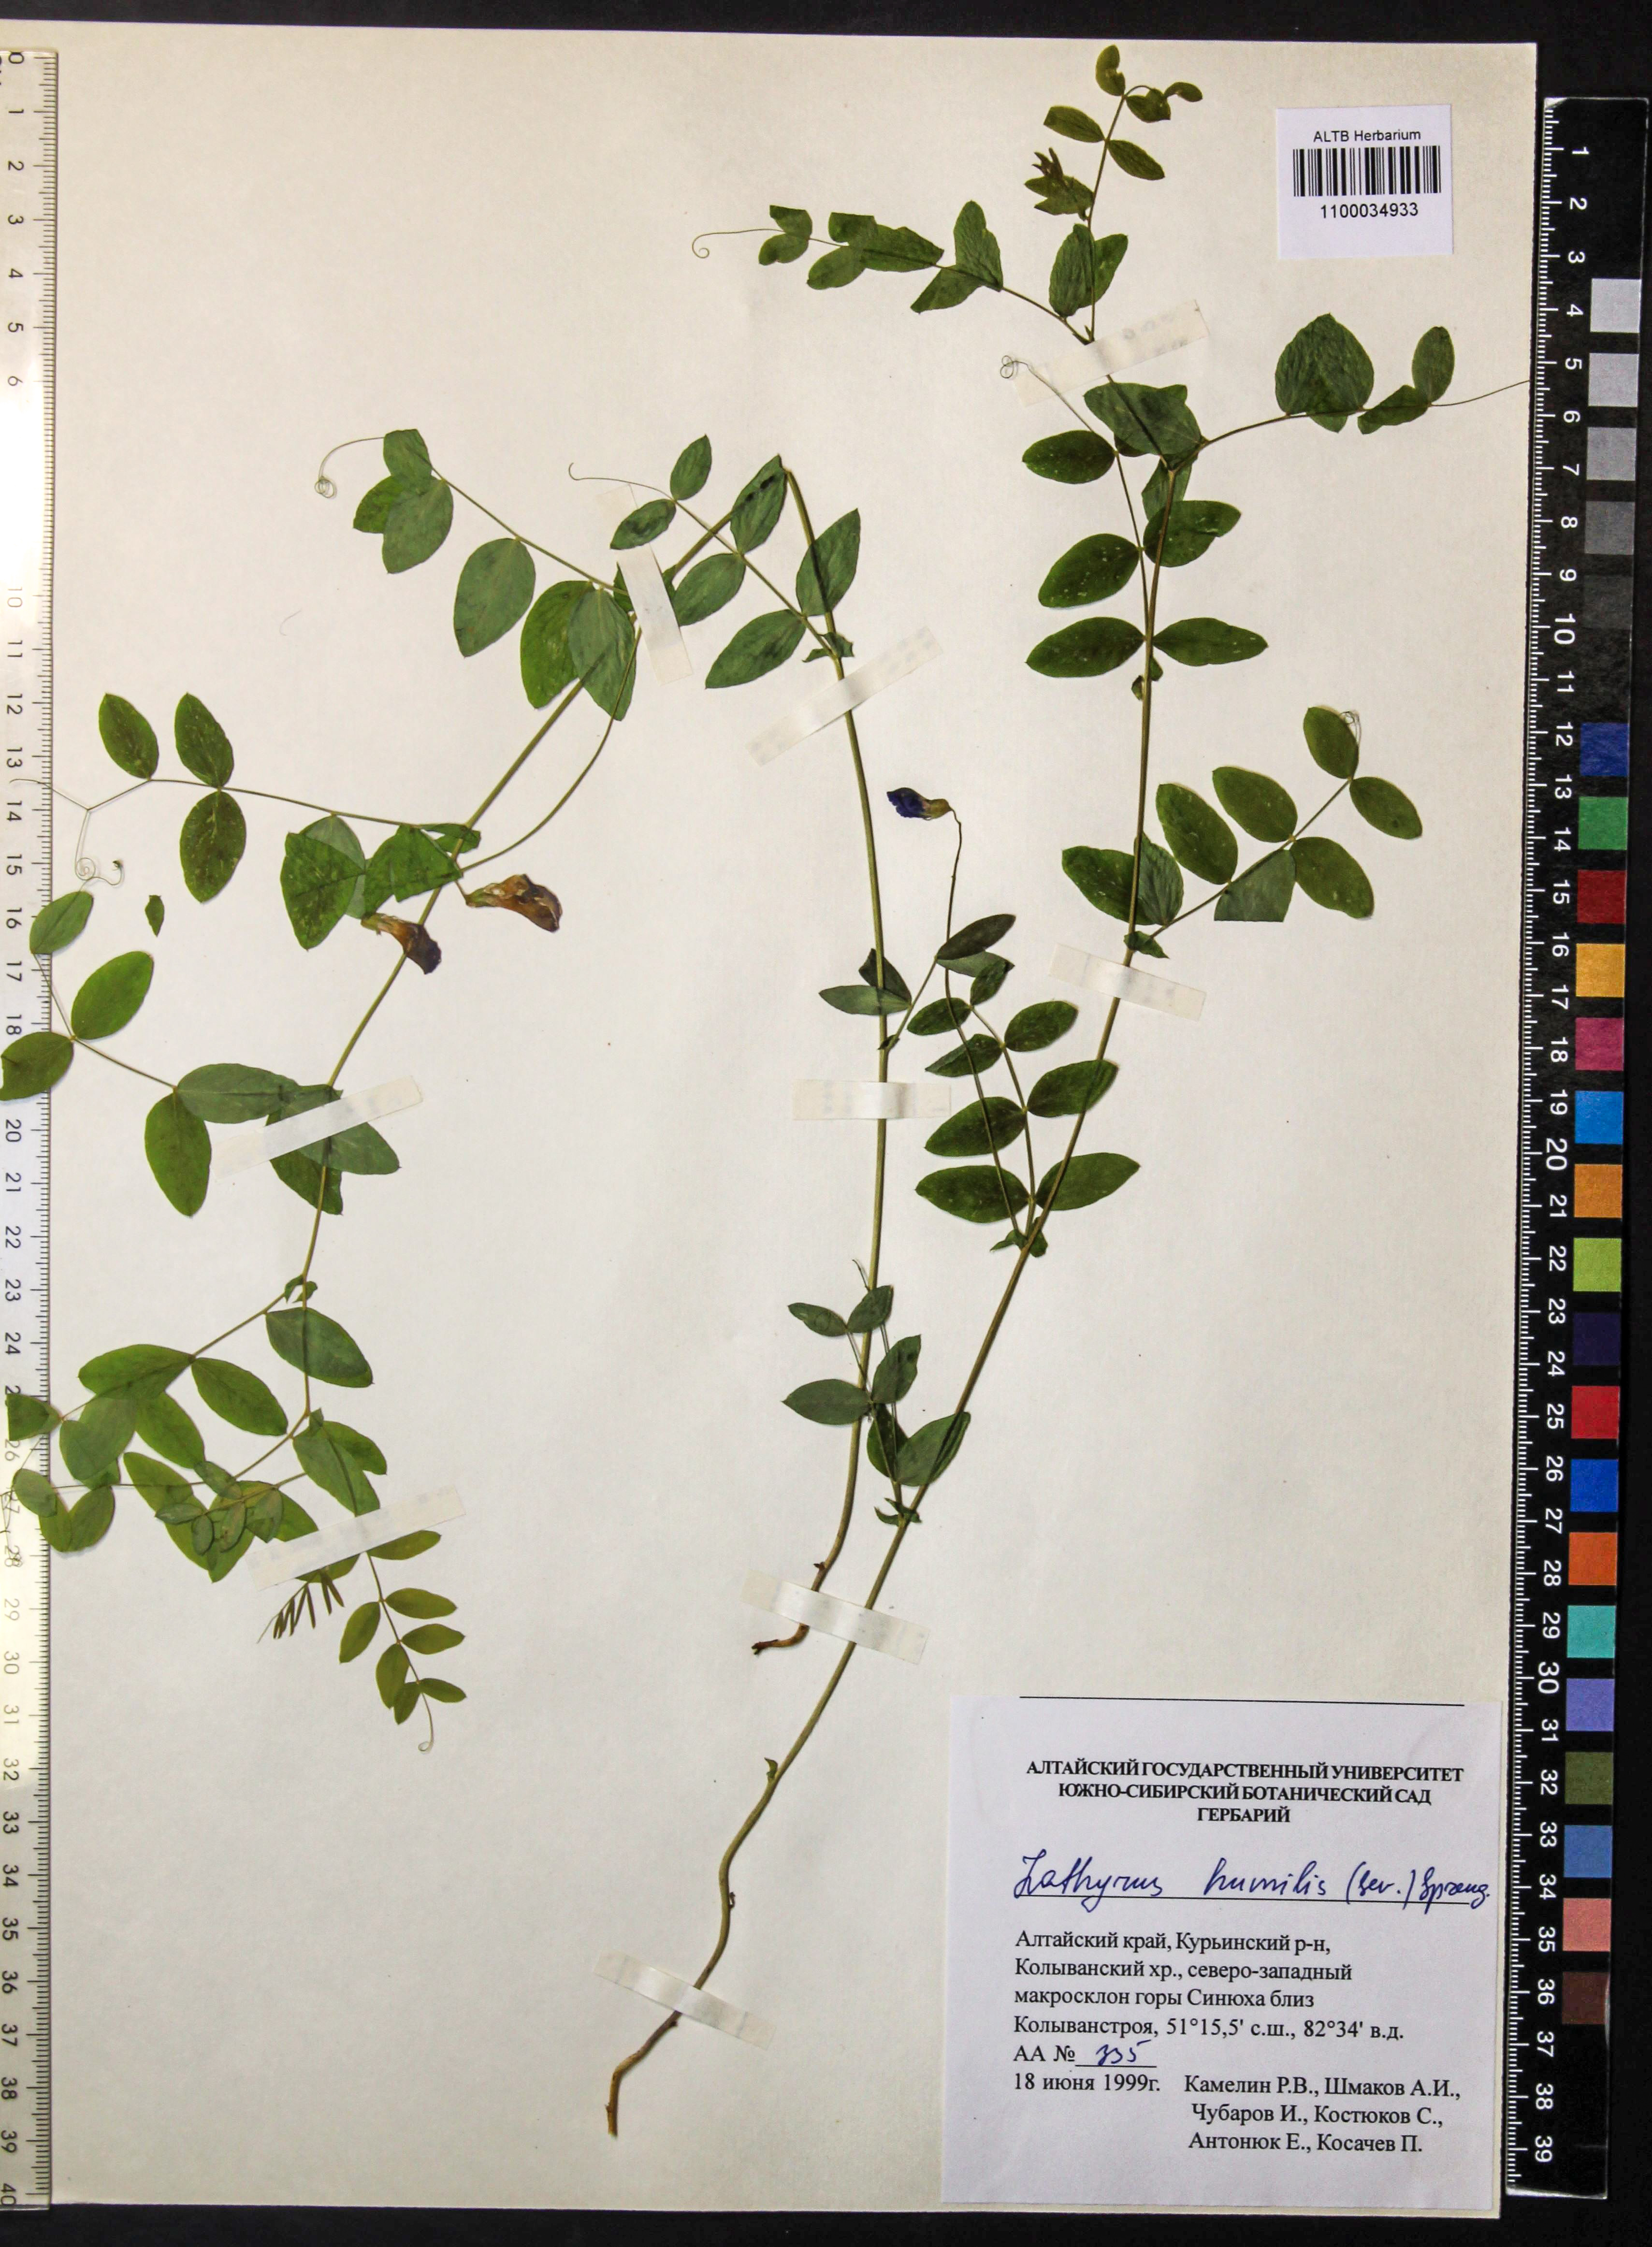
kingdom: Plantae
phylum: Tracheophyta
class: Magnoliopsida
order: Fabales
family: Fabaceae
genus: Lathyrus
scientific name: Lathyrus humilis
